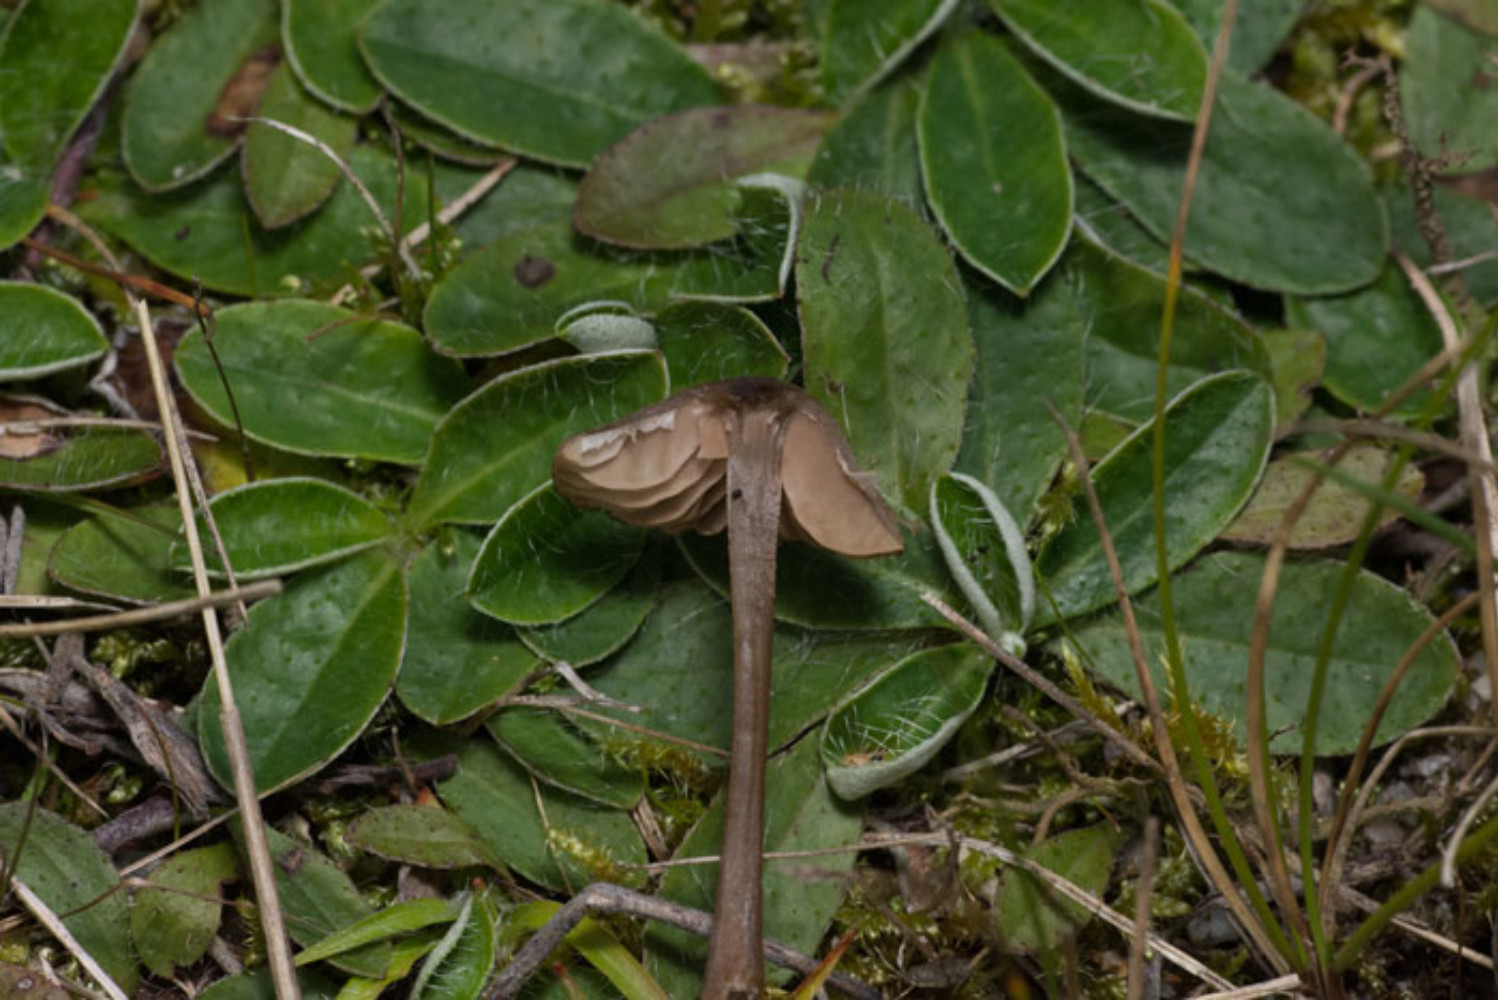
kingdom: Fungi
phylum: Basidiomycota
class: Agaricomycetes
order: Agaricales
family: Entolomataceae
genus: Entoloma
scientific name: Entoloma
